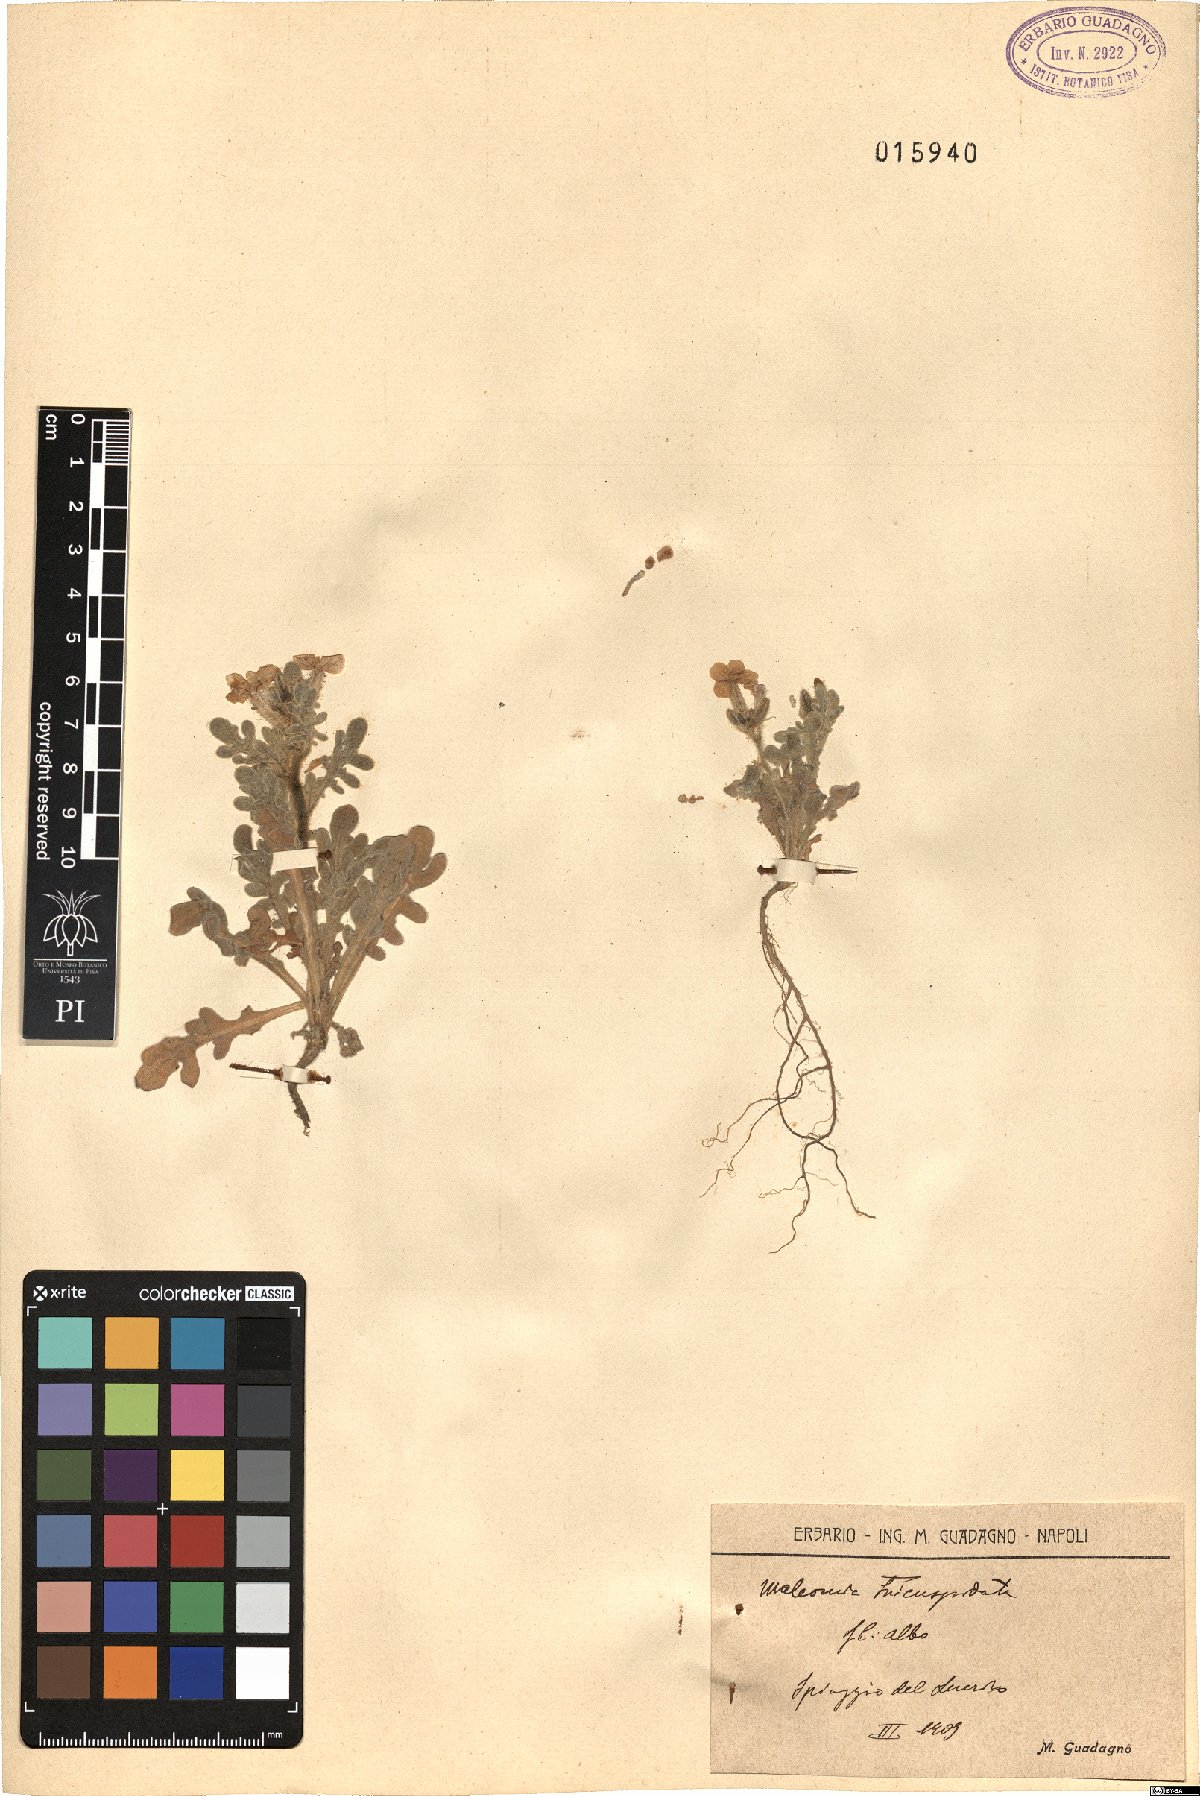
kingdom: Plantae
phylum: Tracheophyta
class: Magnoliopsida
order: Brassicales
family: Brassicaceae
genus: Matthiola
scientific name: Matthiola tricuspidata
